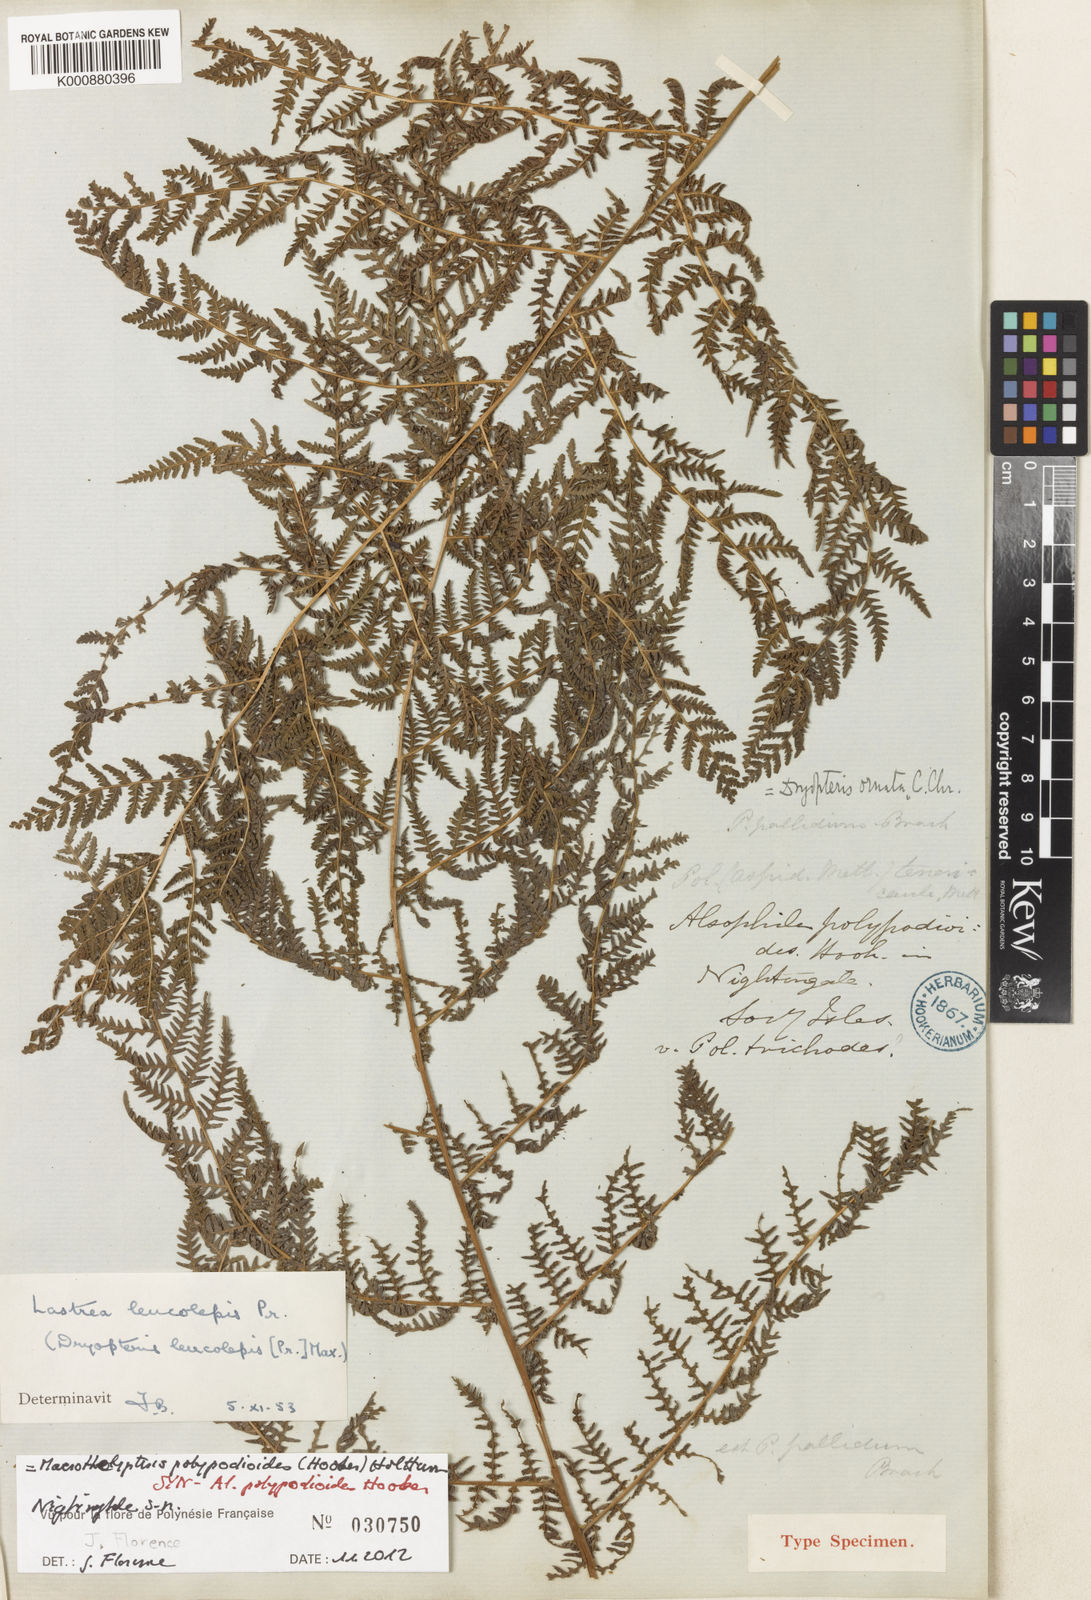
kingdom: Plantae
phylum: Tracheophyta
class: Polypodiopsida
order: Polypodiales
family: Thelypteridaceae
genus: Macrothelypteris
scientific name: Macrothelypteris polypodioides
